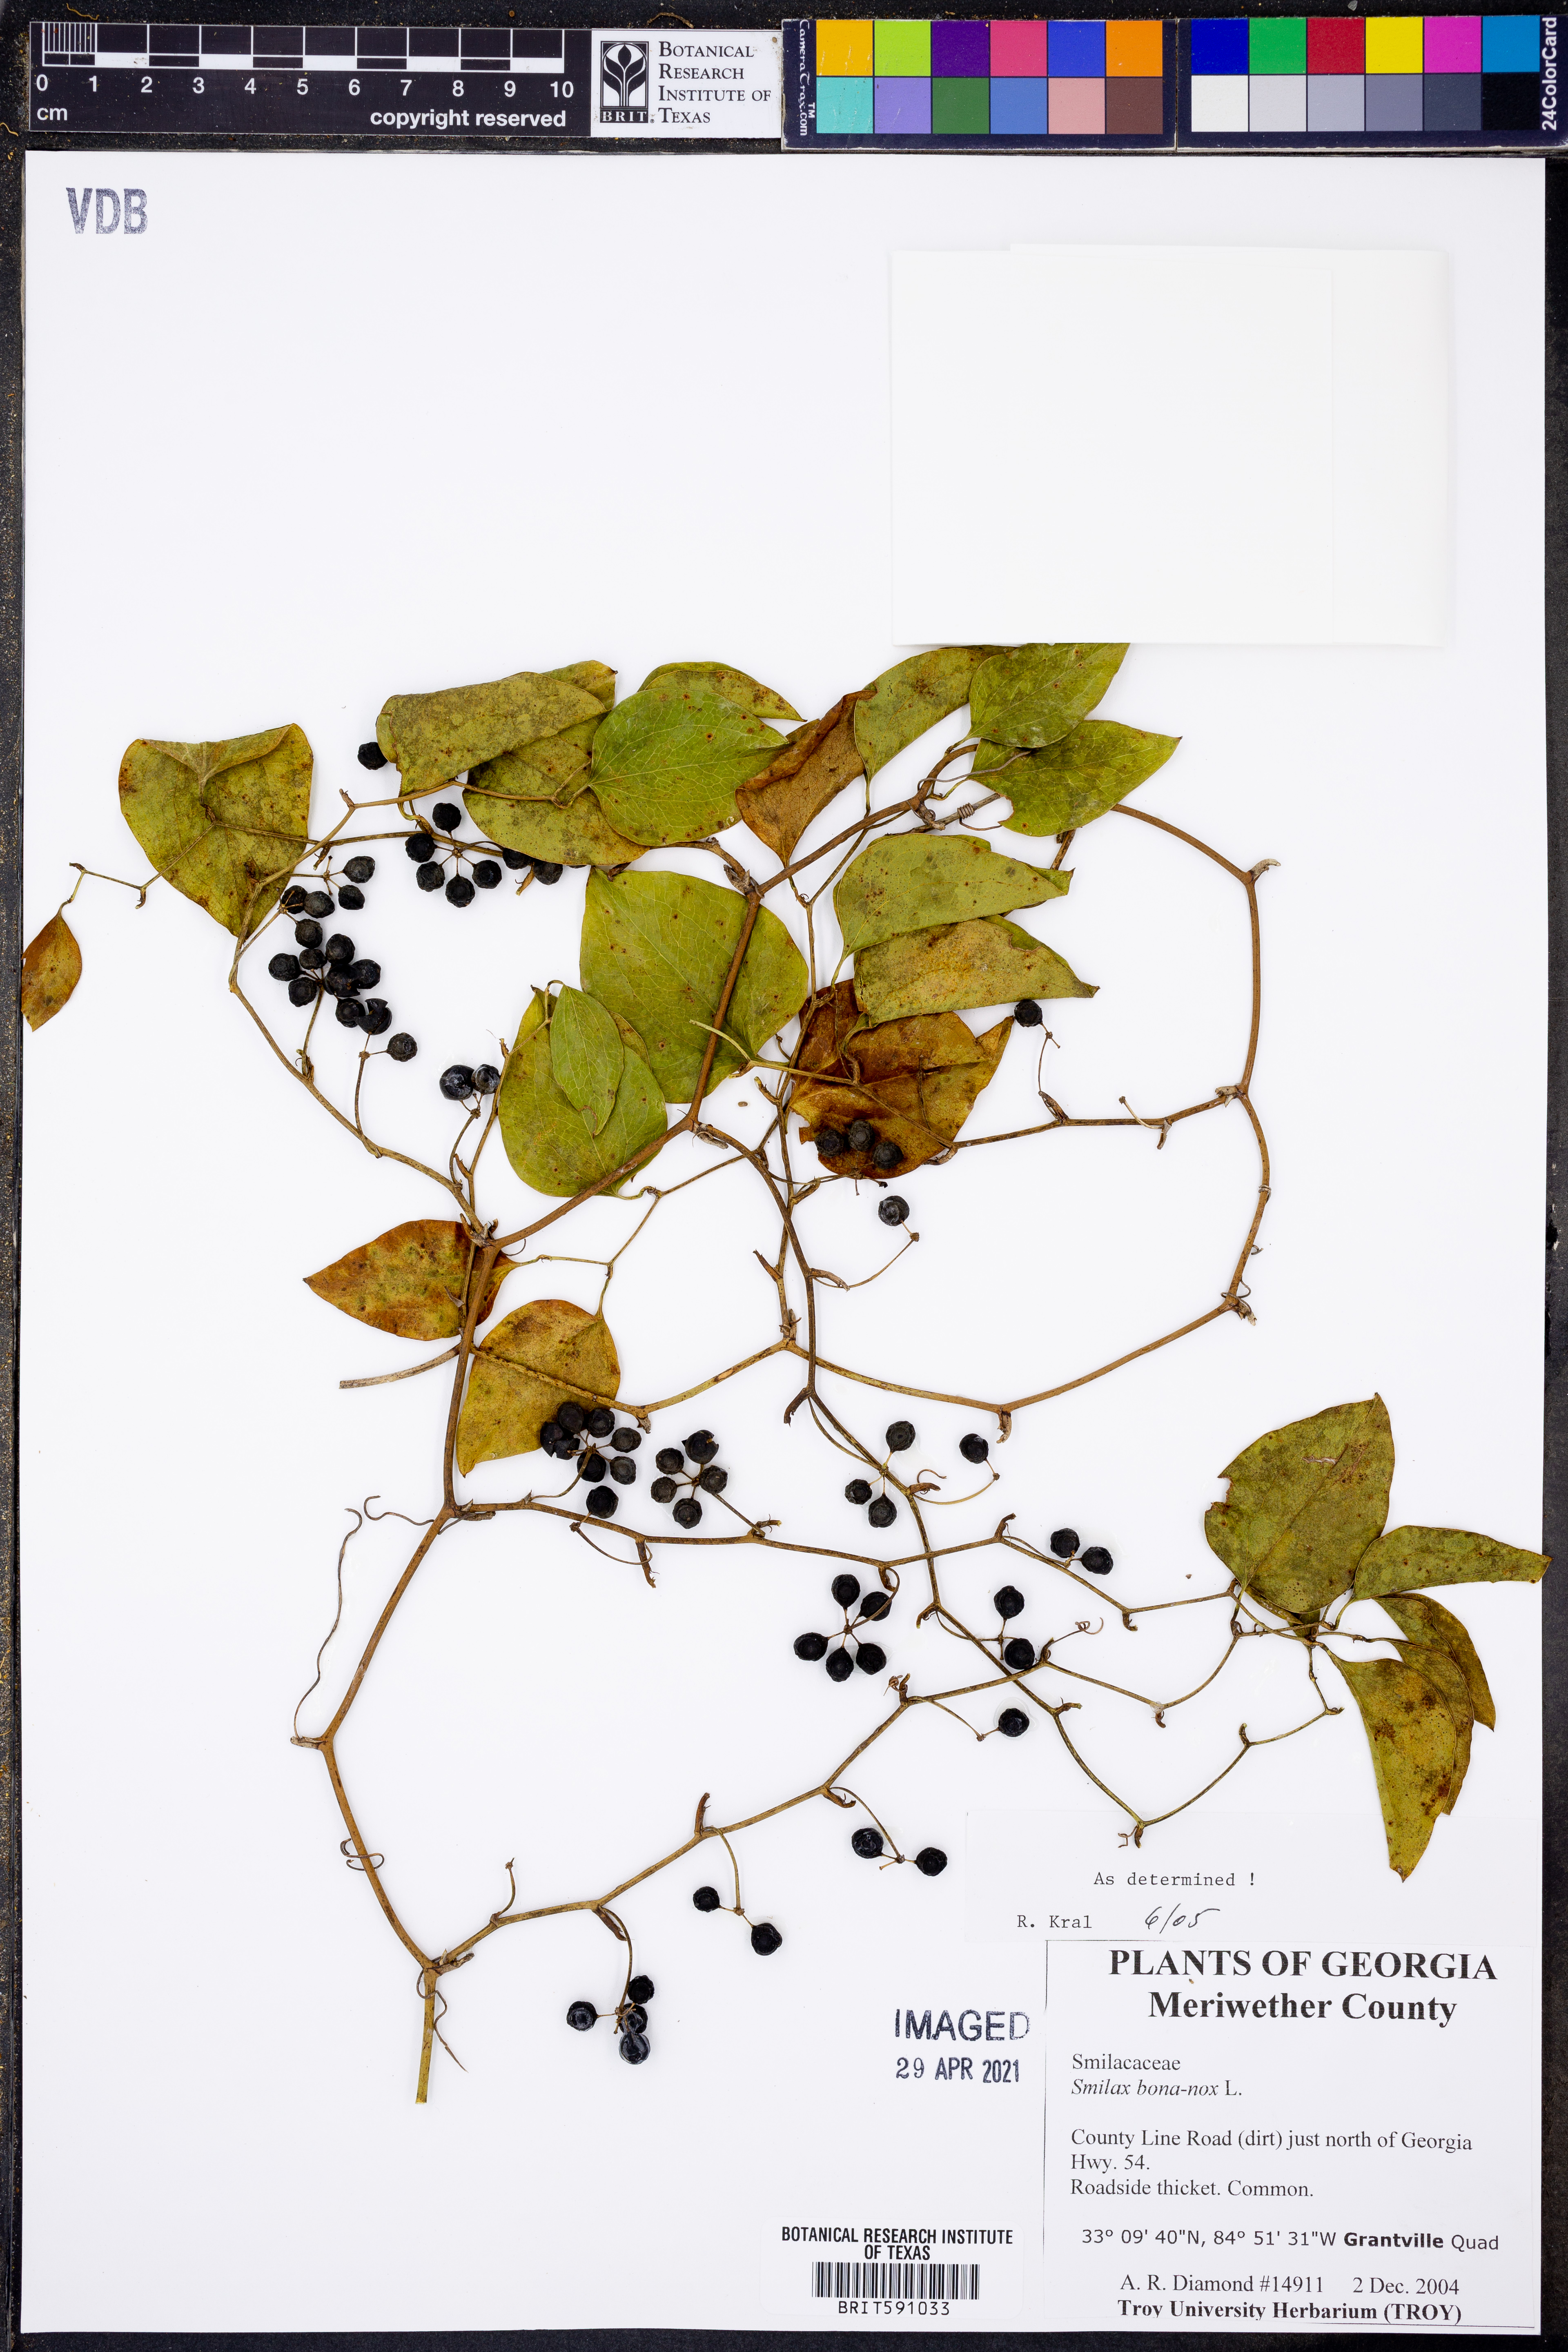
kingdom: Plantae
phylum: Tracheophyta
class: Liliopsida
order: Liliales
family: Smilacaceae
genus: Smilax
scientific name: Smilax bona-nox
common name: Catbrier
